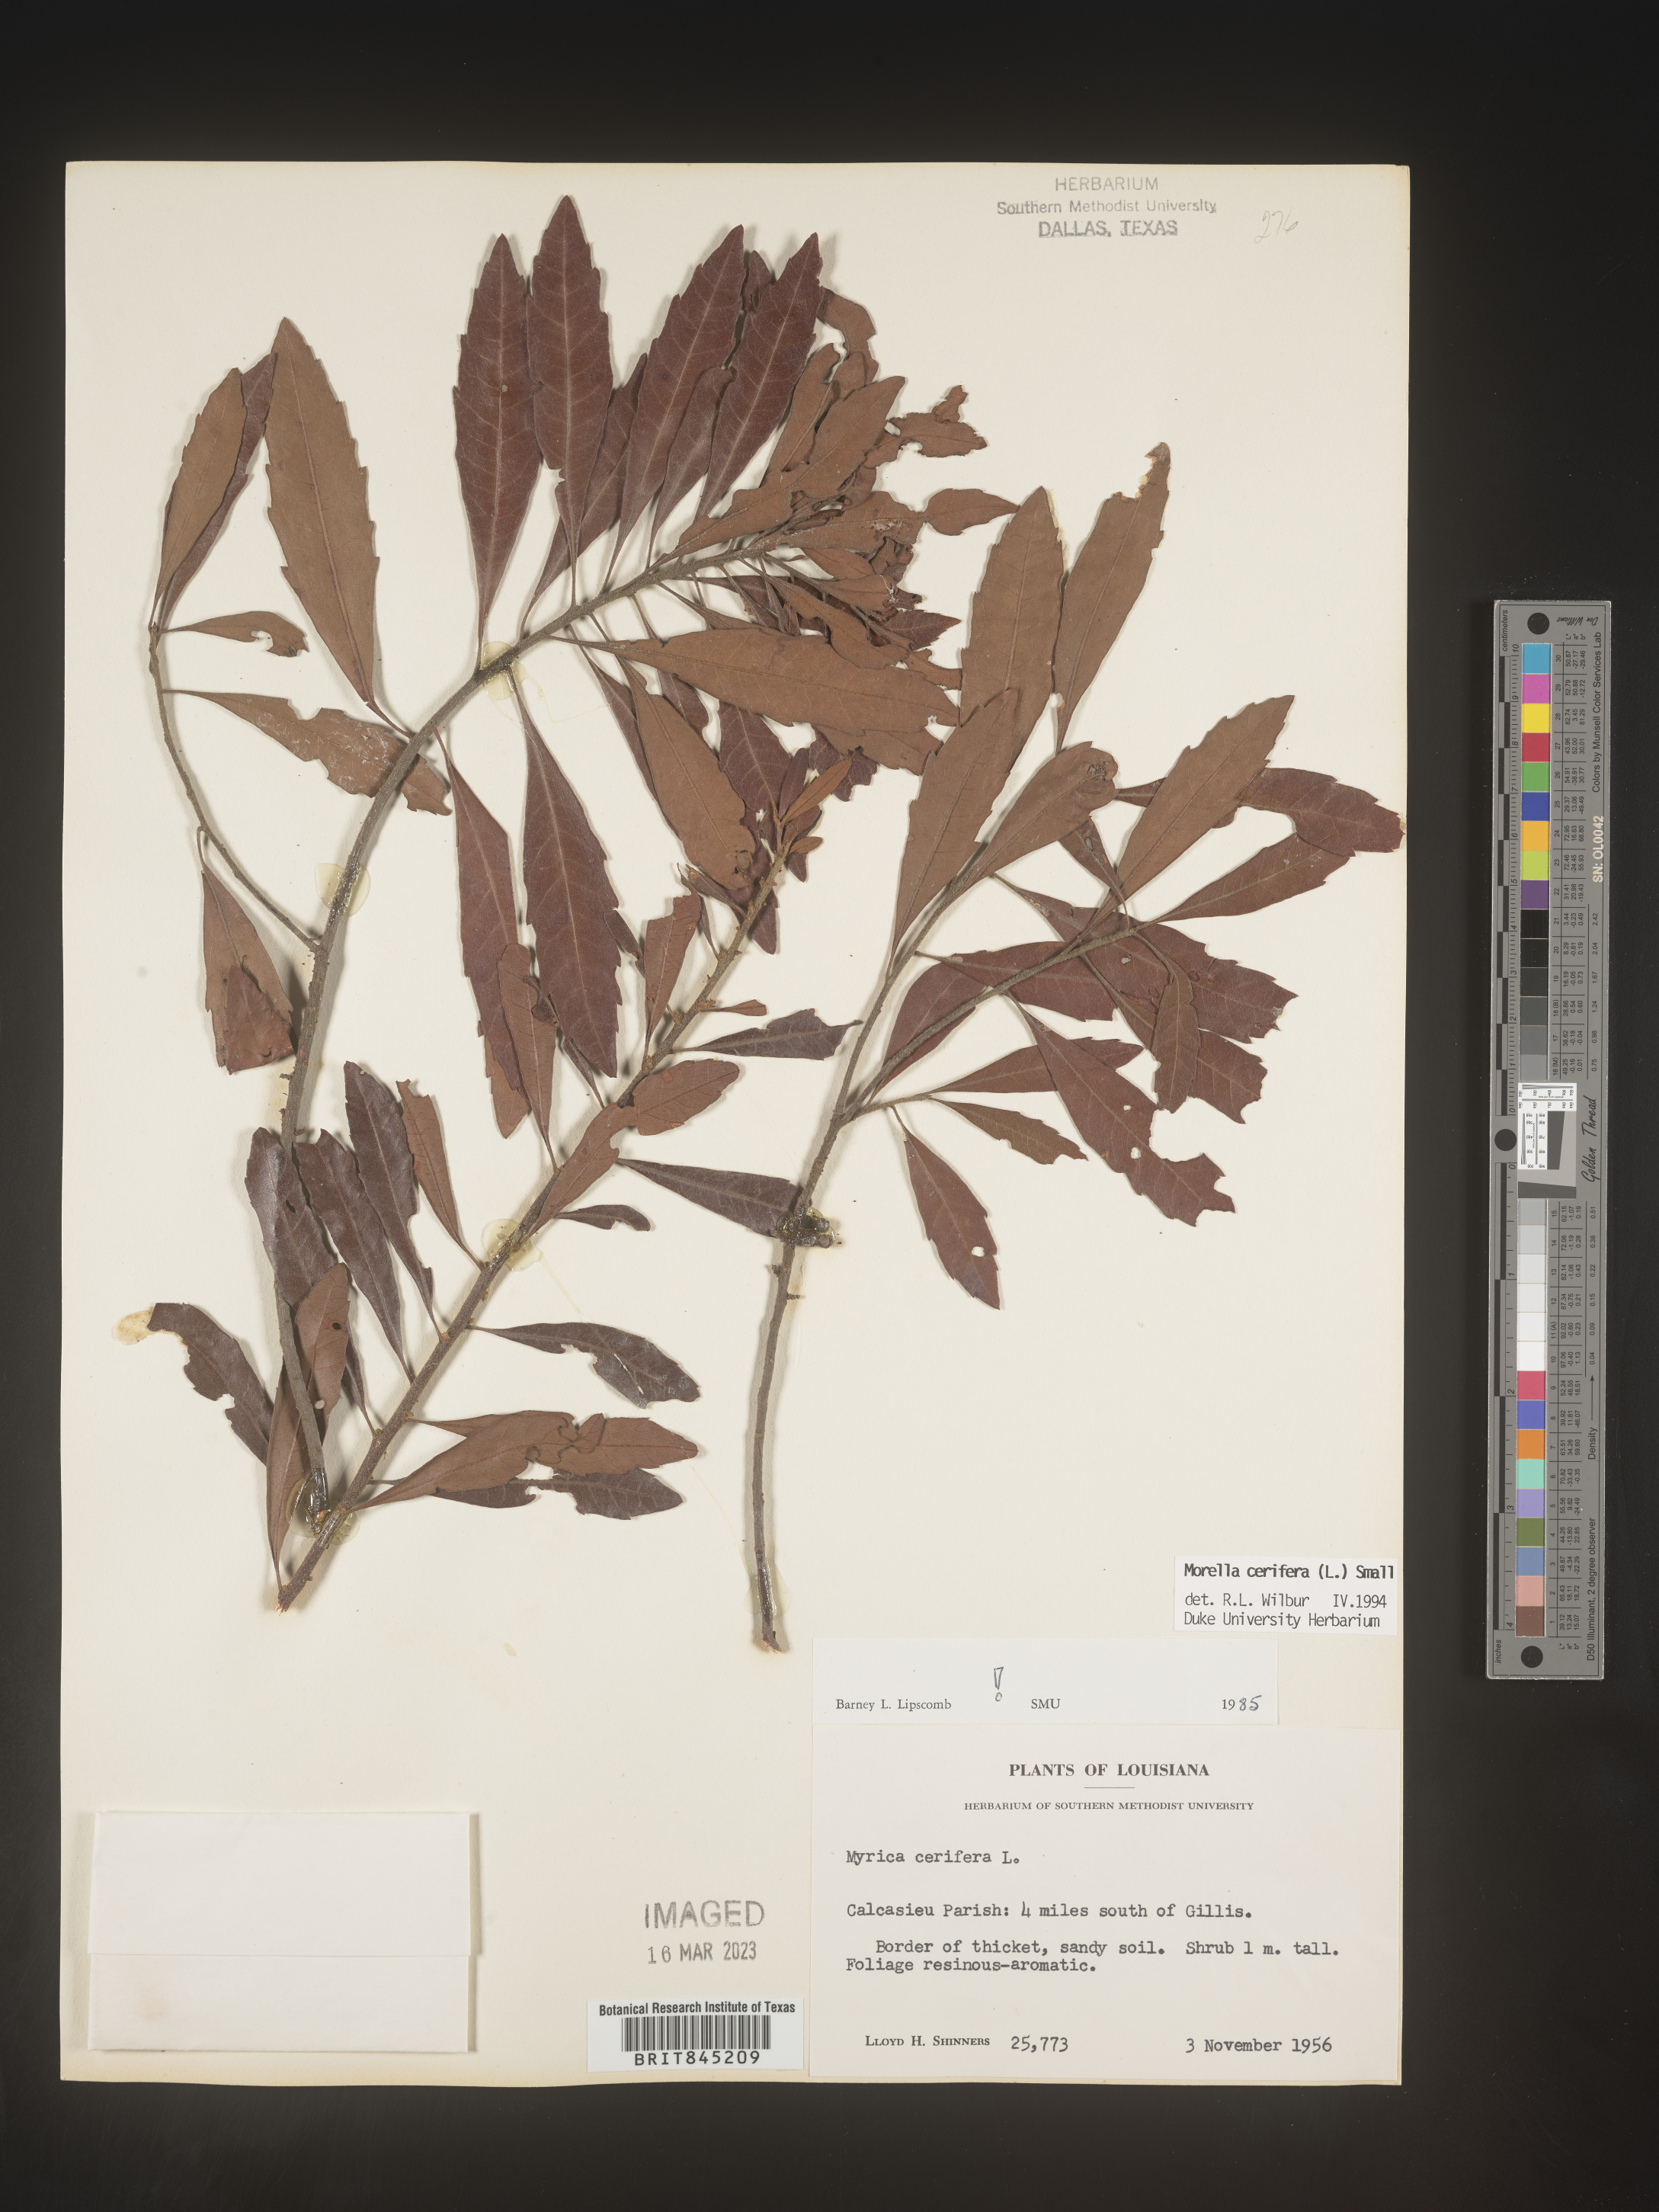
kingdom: Plantae
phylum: Tracheophyta
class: Magnoliopsida
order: Fagales
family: Myricaceae
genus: Morella
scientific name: Morella cerifera
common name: Wax myrtle
